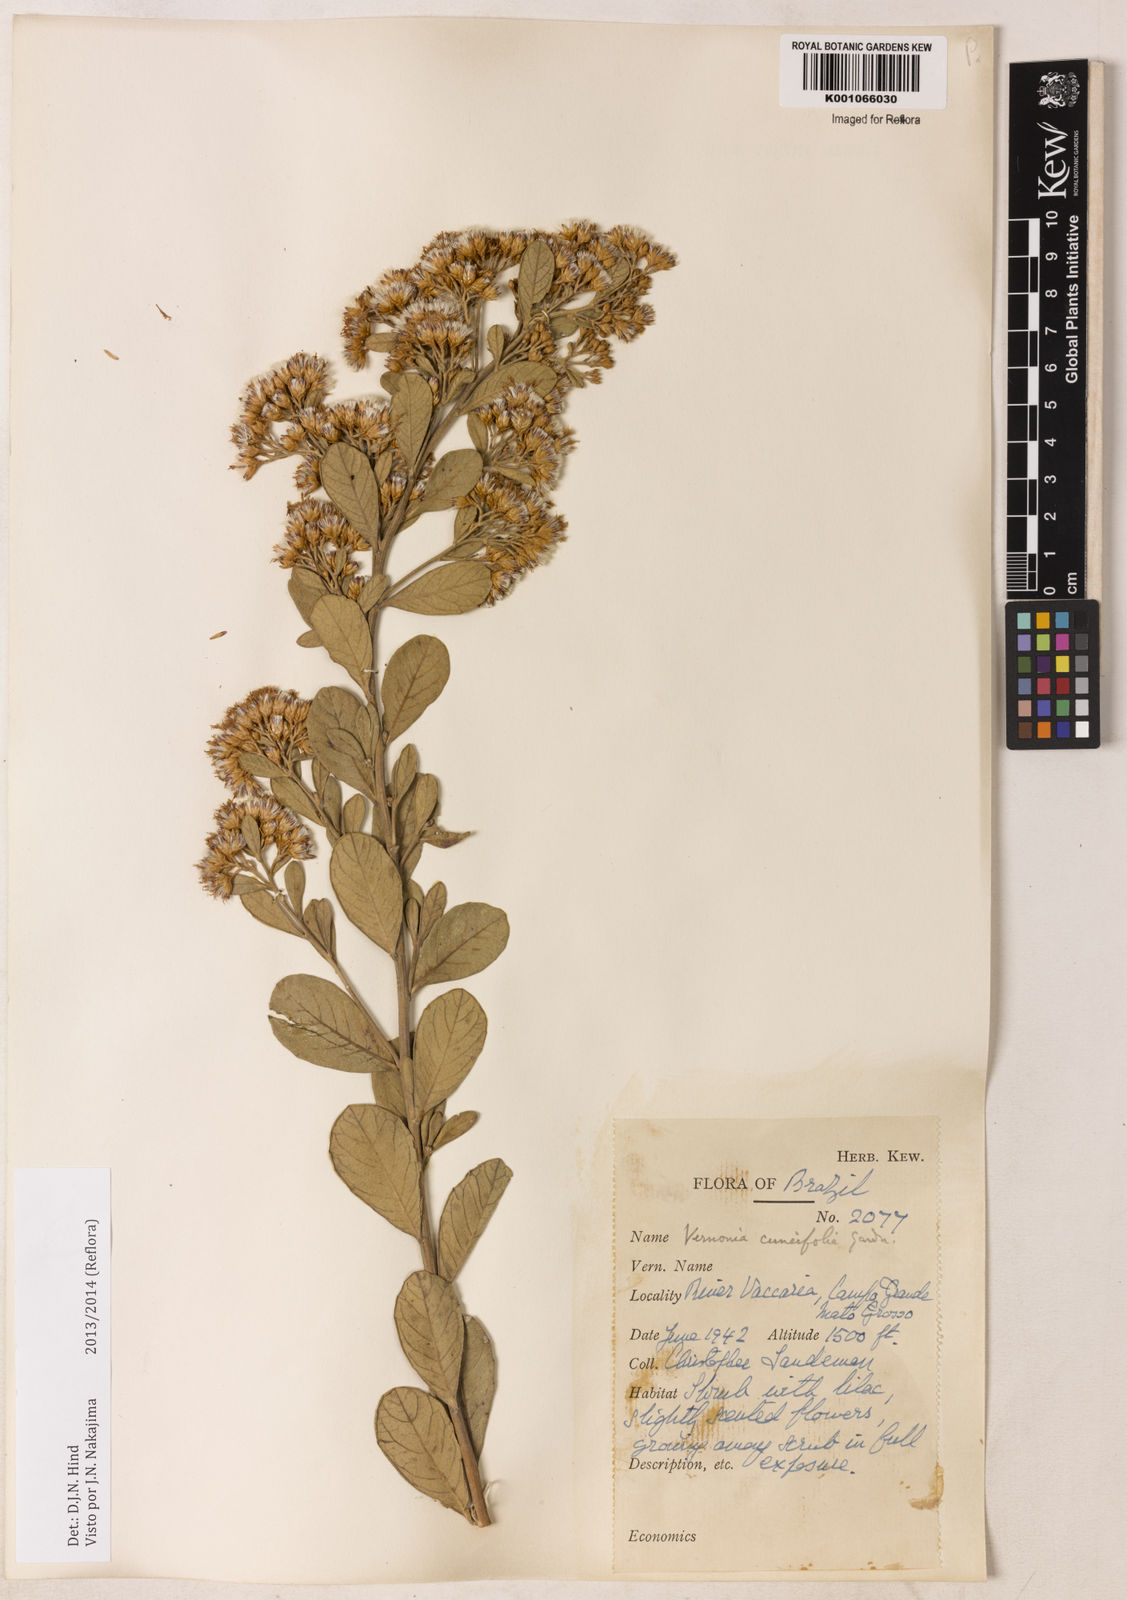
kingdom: Plantae
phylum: Tracheophyta
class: Magnoliopsida
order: Asterales
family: Asteraceae
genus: Vernonanthura
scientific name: Vernonanthura cuneifolia
